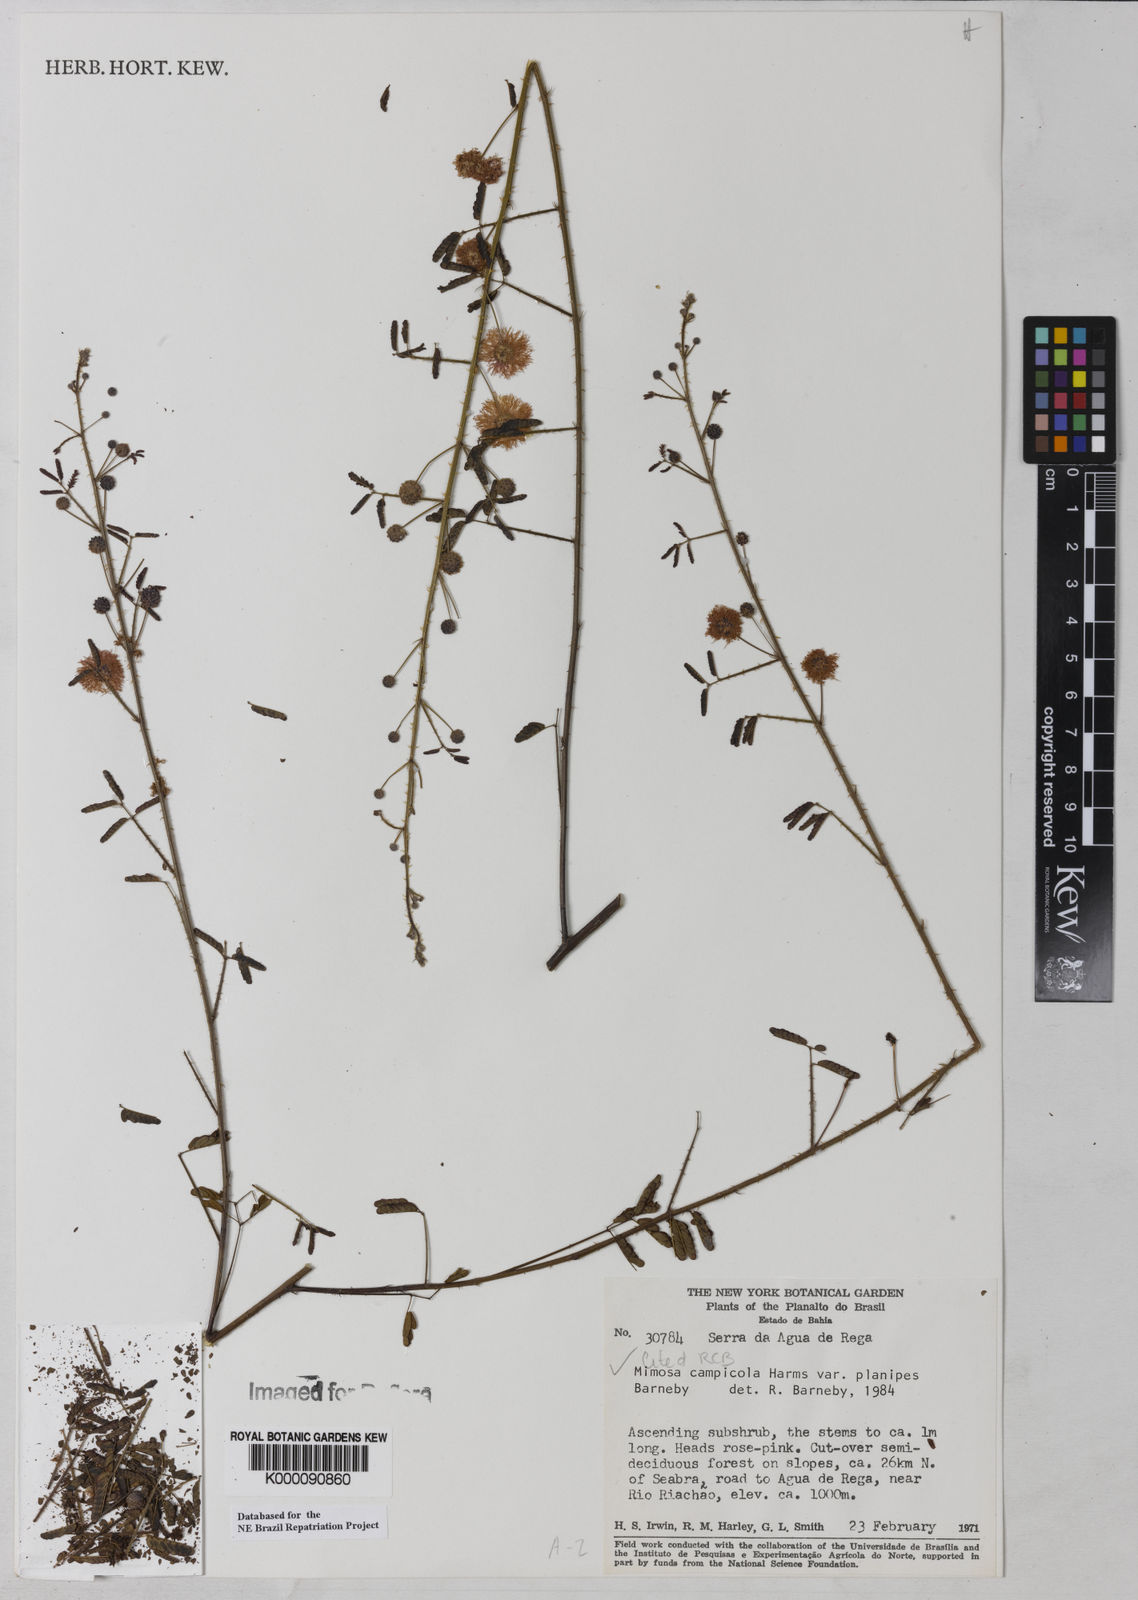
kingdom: Plantae
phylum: Tracheophyta
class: Magnoliopsida
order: Fabales
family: Fabaceae
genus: Mimosa
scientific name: Mimosa campicola
